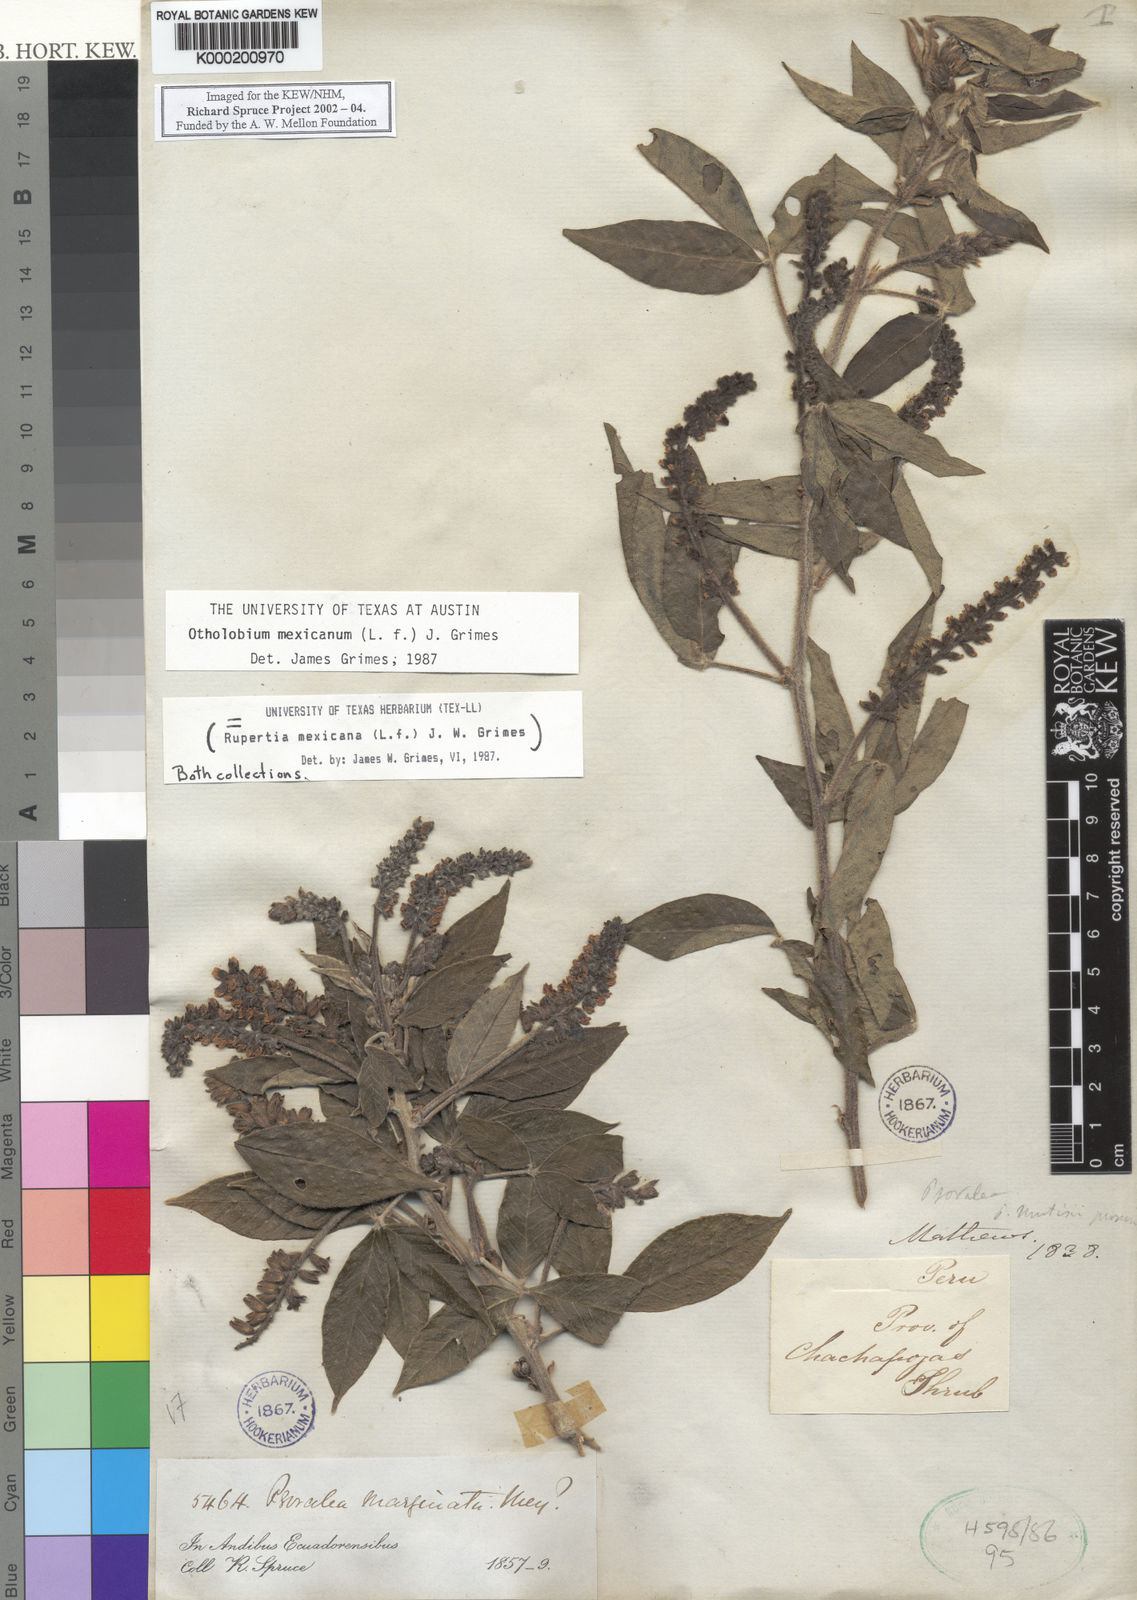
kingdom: Plantae
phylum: Tracheophyta
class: Magnoliopsida
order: Fabales
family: Fabaceae
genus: Psoralea
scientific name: Psoralea Otholobium mexicanum
